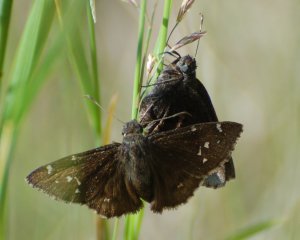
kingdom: Animalia
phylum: Arthropoda
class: Insecta
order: Lepidoptera
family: Hesperiidae
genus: Autochton
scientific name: Autochton
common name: Northern Cloudywing
